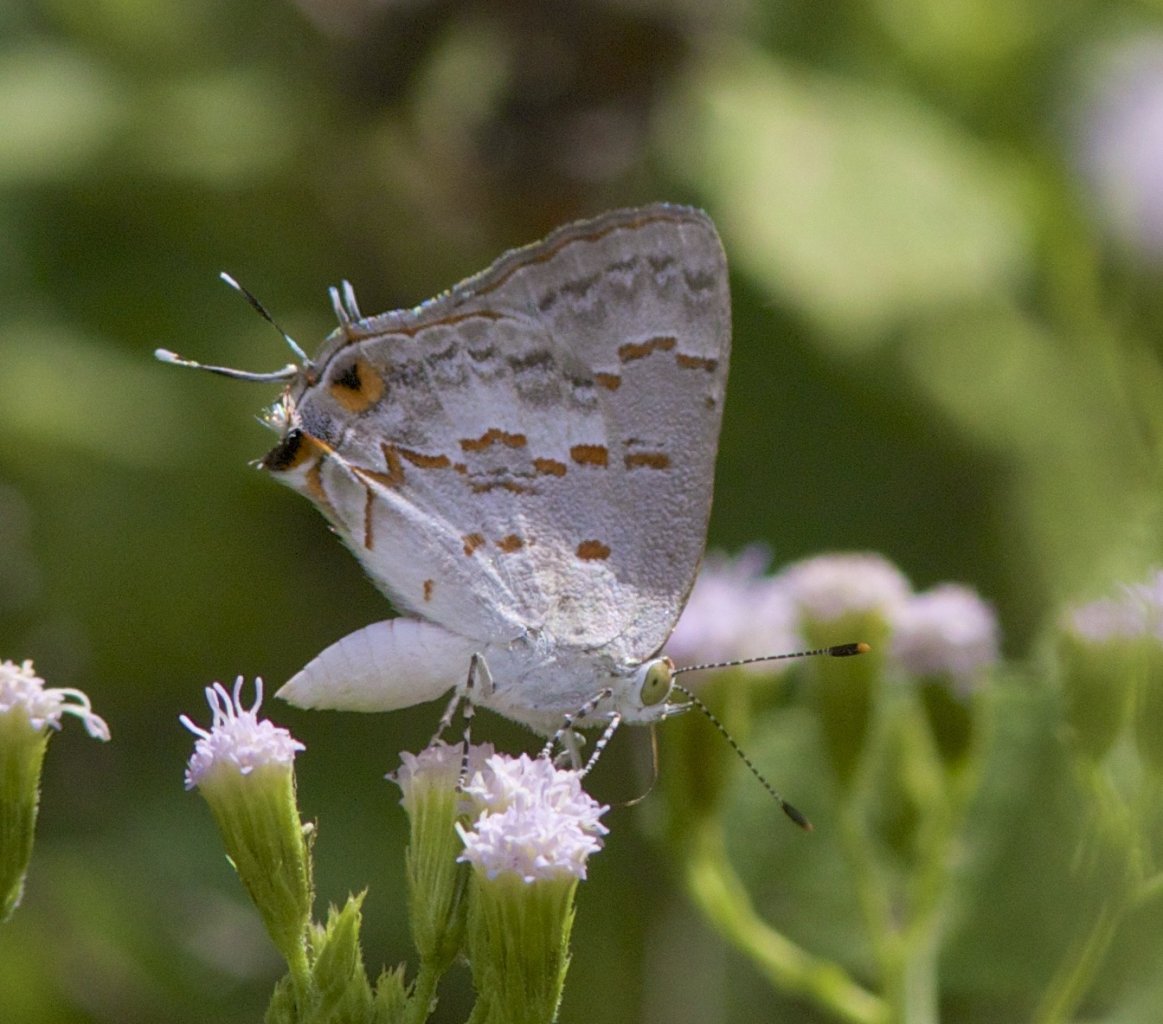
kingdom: Animalia
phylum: Arthropoda
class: Insecta
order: Lepidoptera
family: Lycaenidae
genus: Ministrymon
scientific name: Ministrymon clytie
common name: Clytie Ministreak
